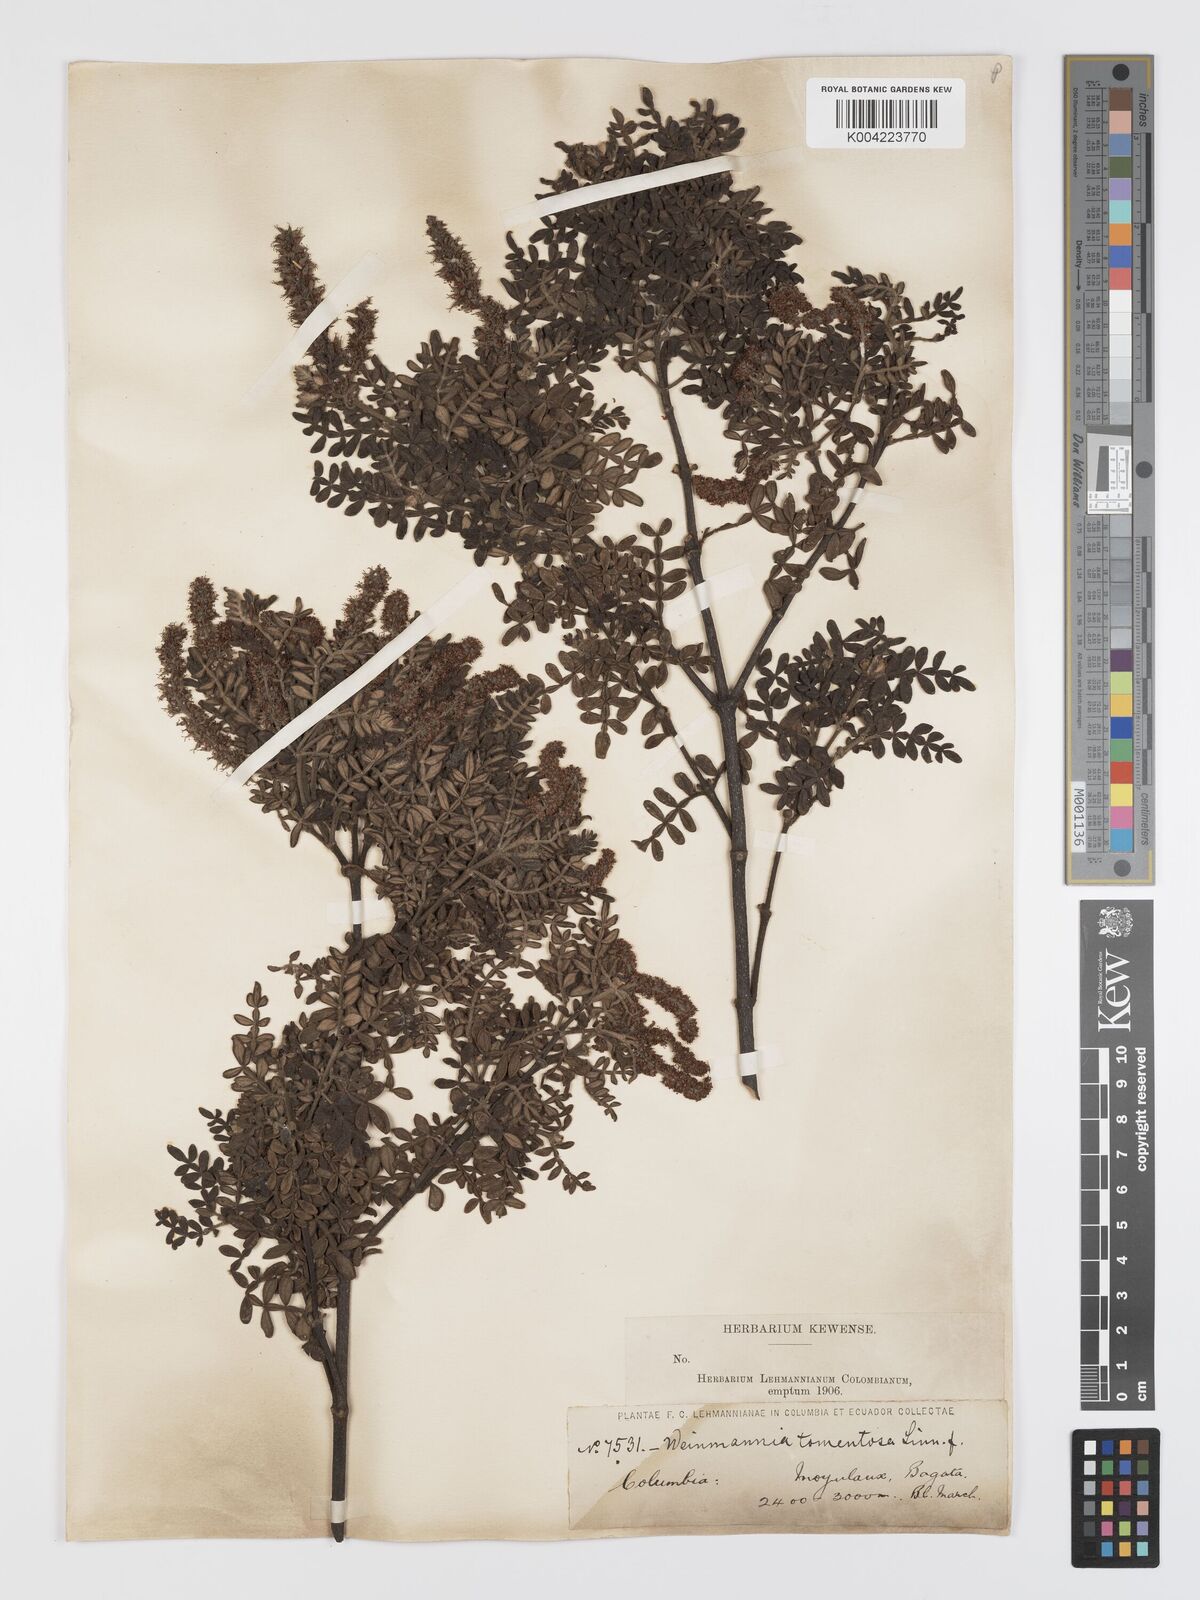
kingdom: Plantae
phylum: Tracheophyta
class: Magnoliopsida
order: Oxalidales
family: Cunoniaceae
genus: Weinmannia
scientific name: Weinmannia tomentosa
